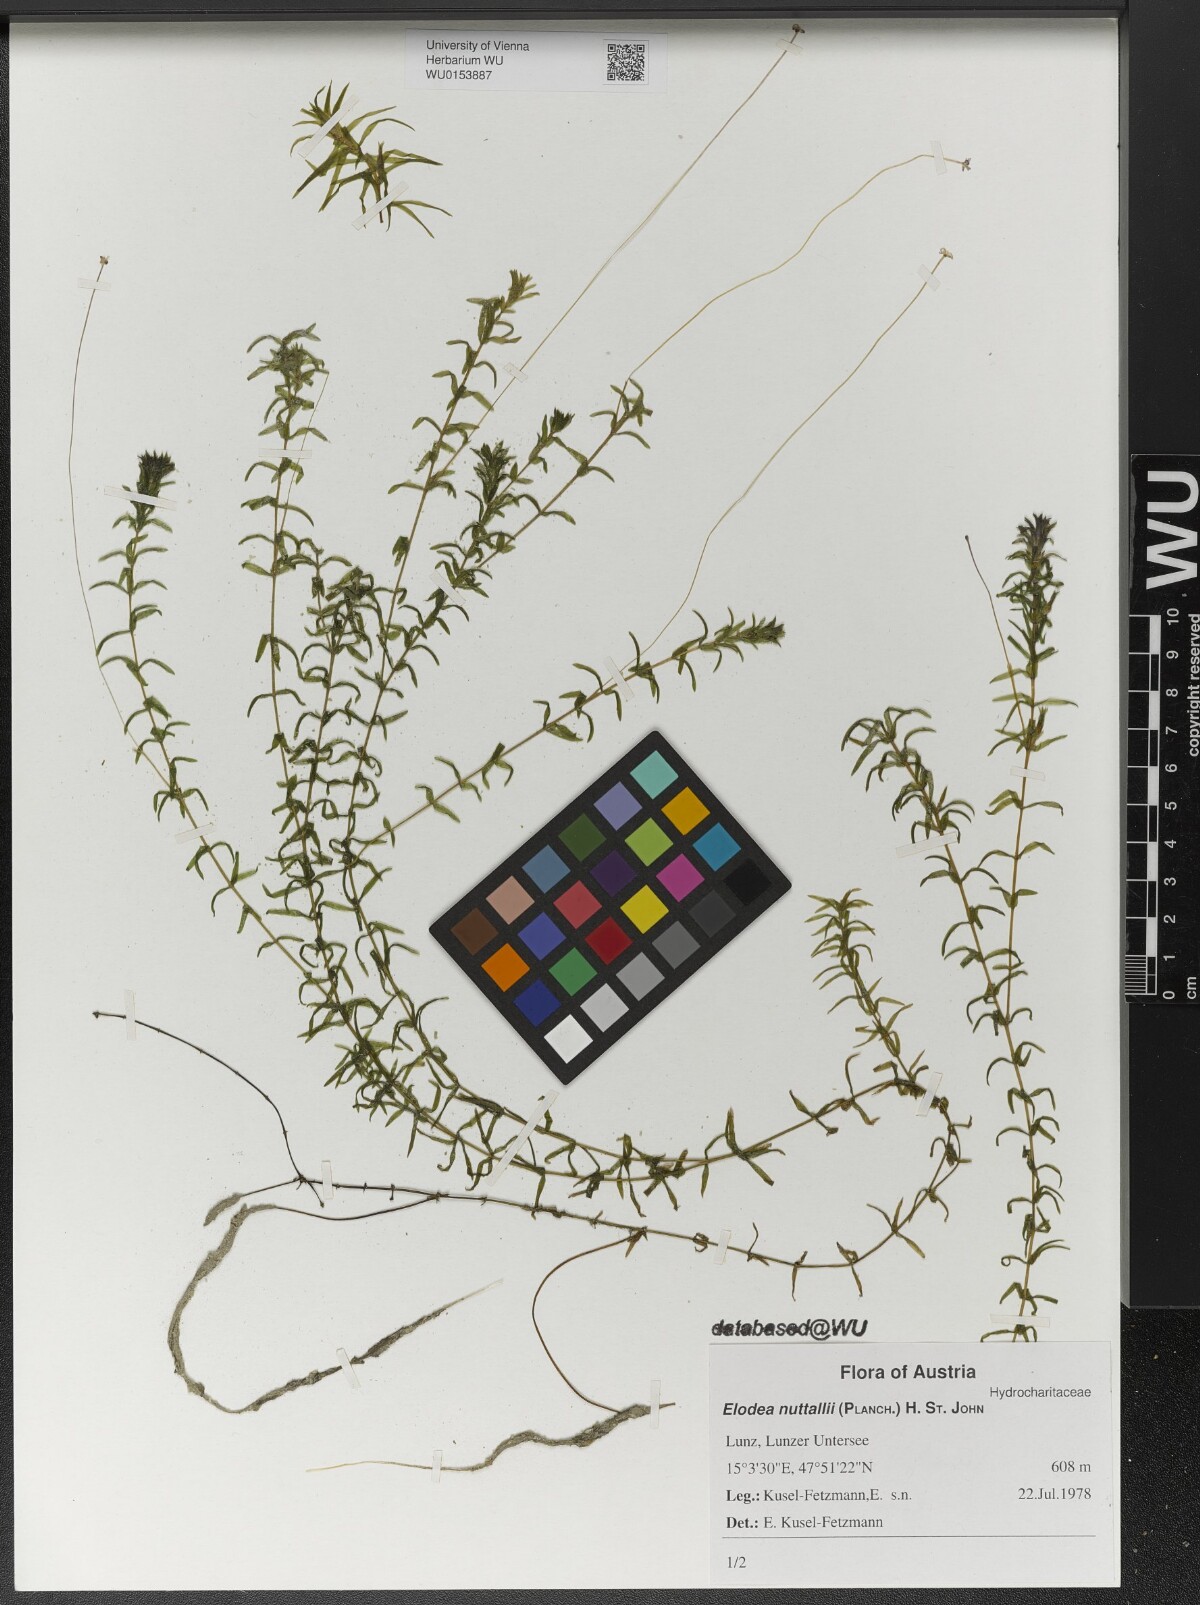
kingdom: Plantae
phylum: Tracheophyta
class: Liliopsida
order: Alismatales
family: Hydrocharitaceae
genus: Elodea
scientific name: Elodea nuttallii
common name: Nuttall's waterweed
